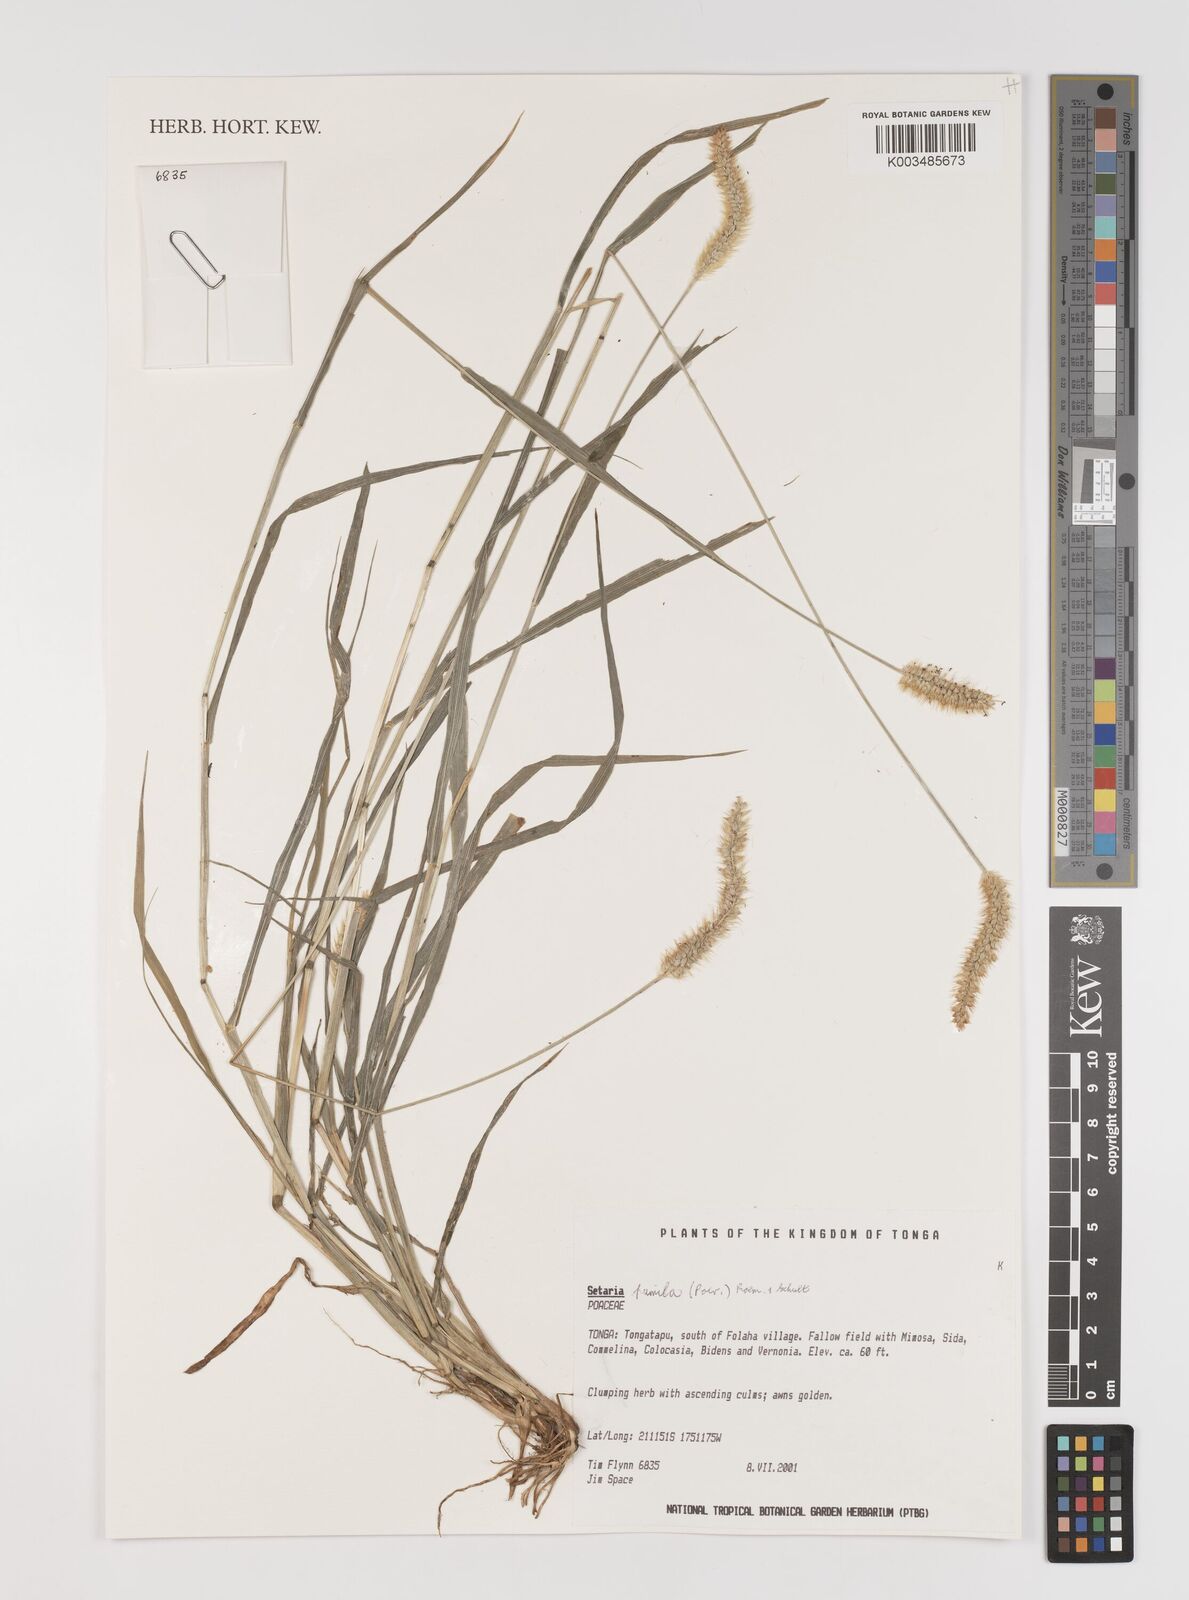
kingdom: Plantae
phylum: Tracheophyta
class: Liliopsida
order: Poales
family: Poaceae
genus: Setaria
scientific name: Setaria pumila
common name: Yellow bristle-grass
